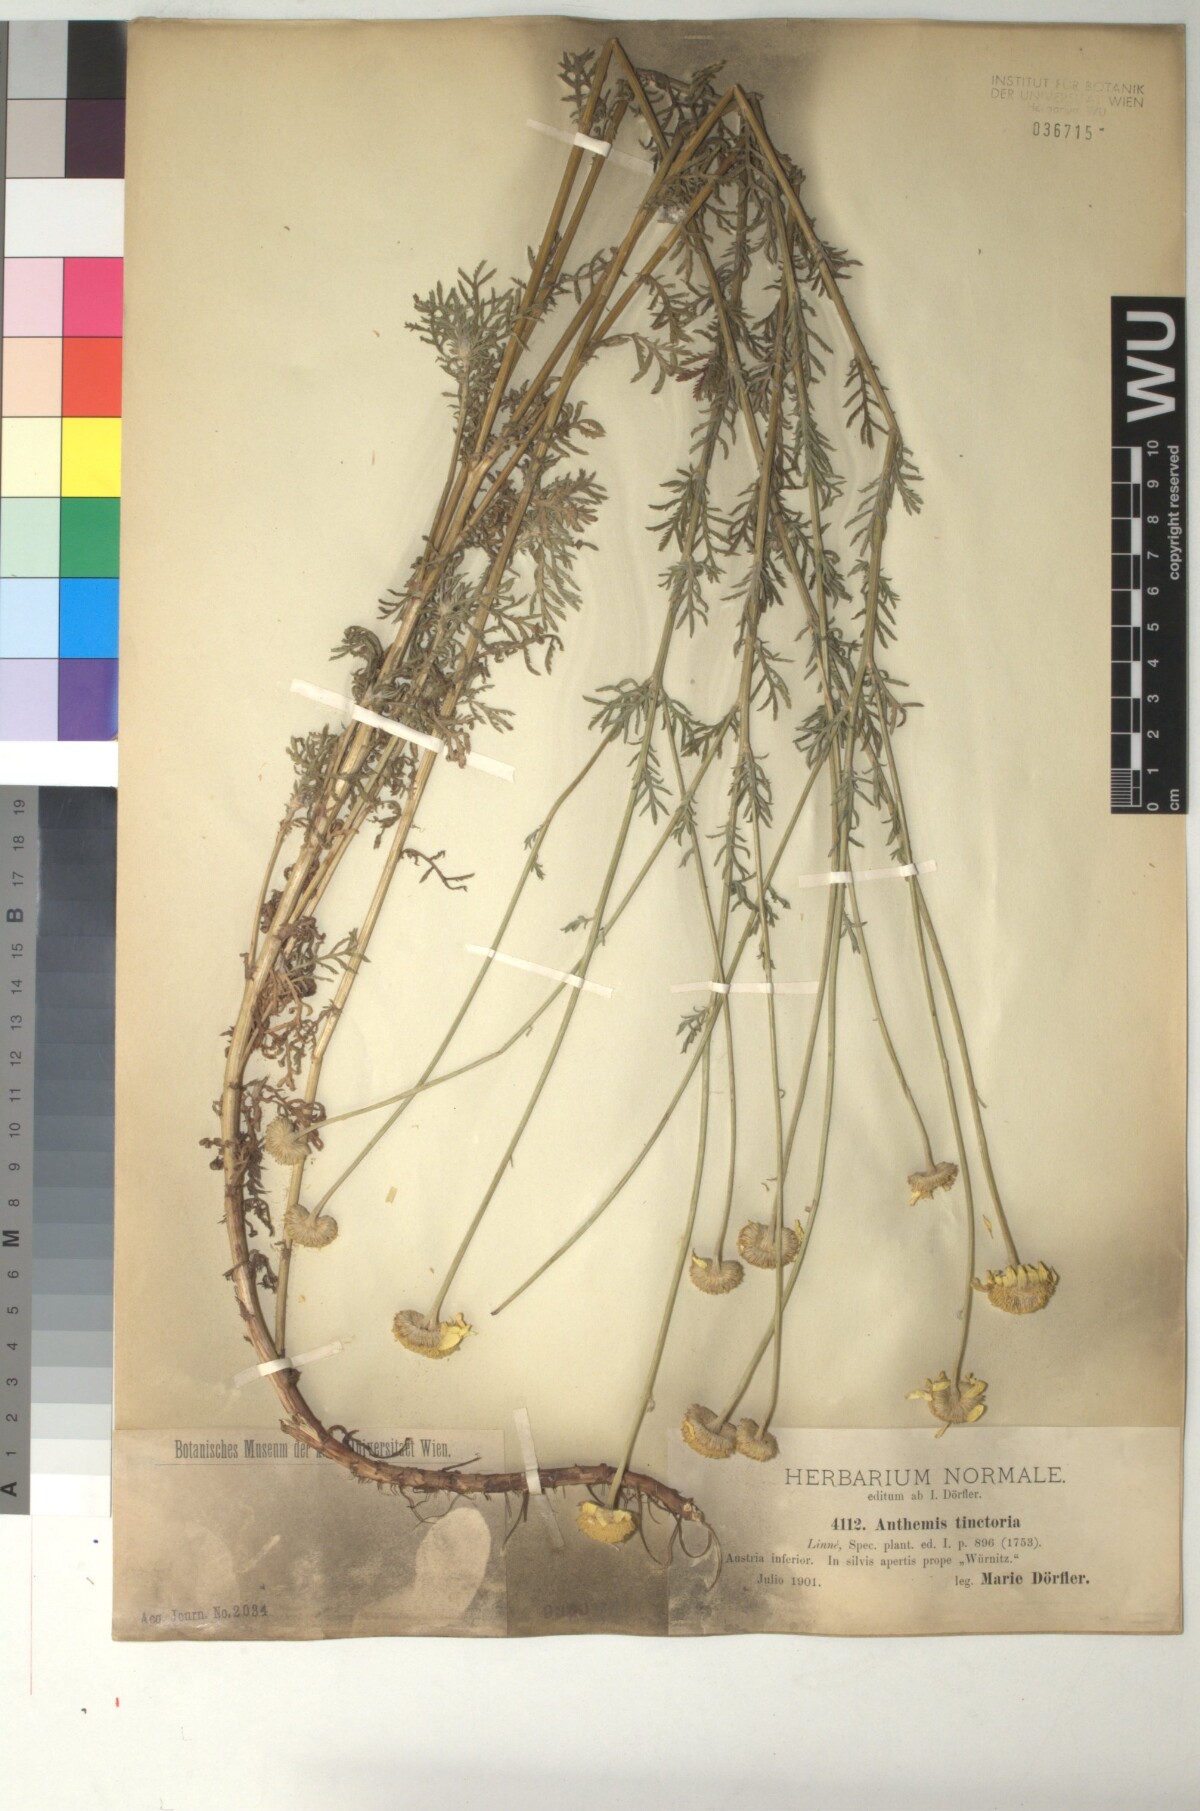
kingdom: Plantae
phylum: Tracheophyta
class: Magnoliopsida
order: Asterales
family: Asteraceae
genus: Cota
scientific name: Cota tinctoria
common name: Golden chamomile
